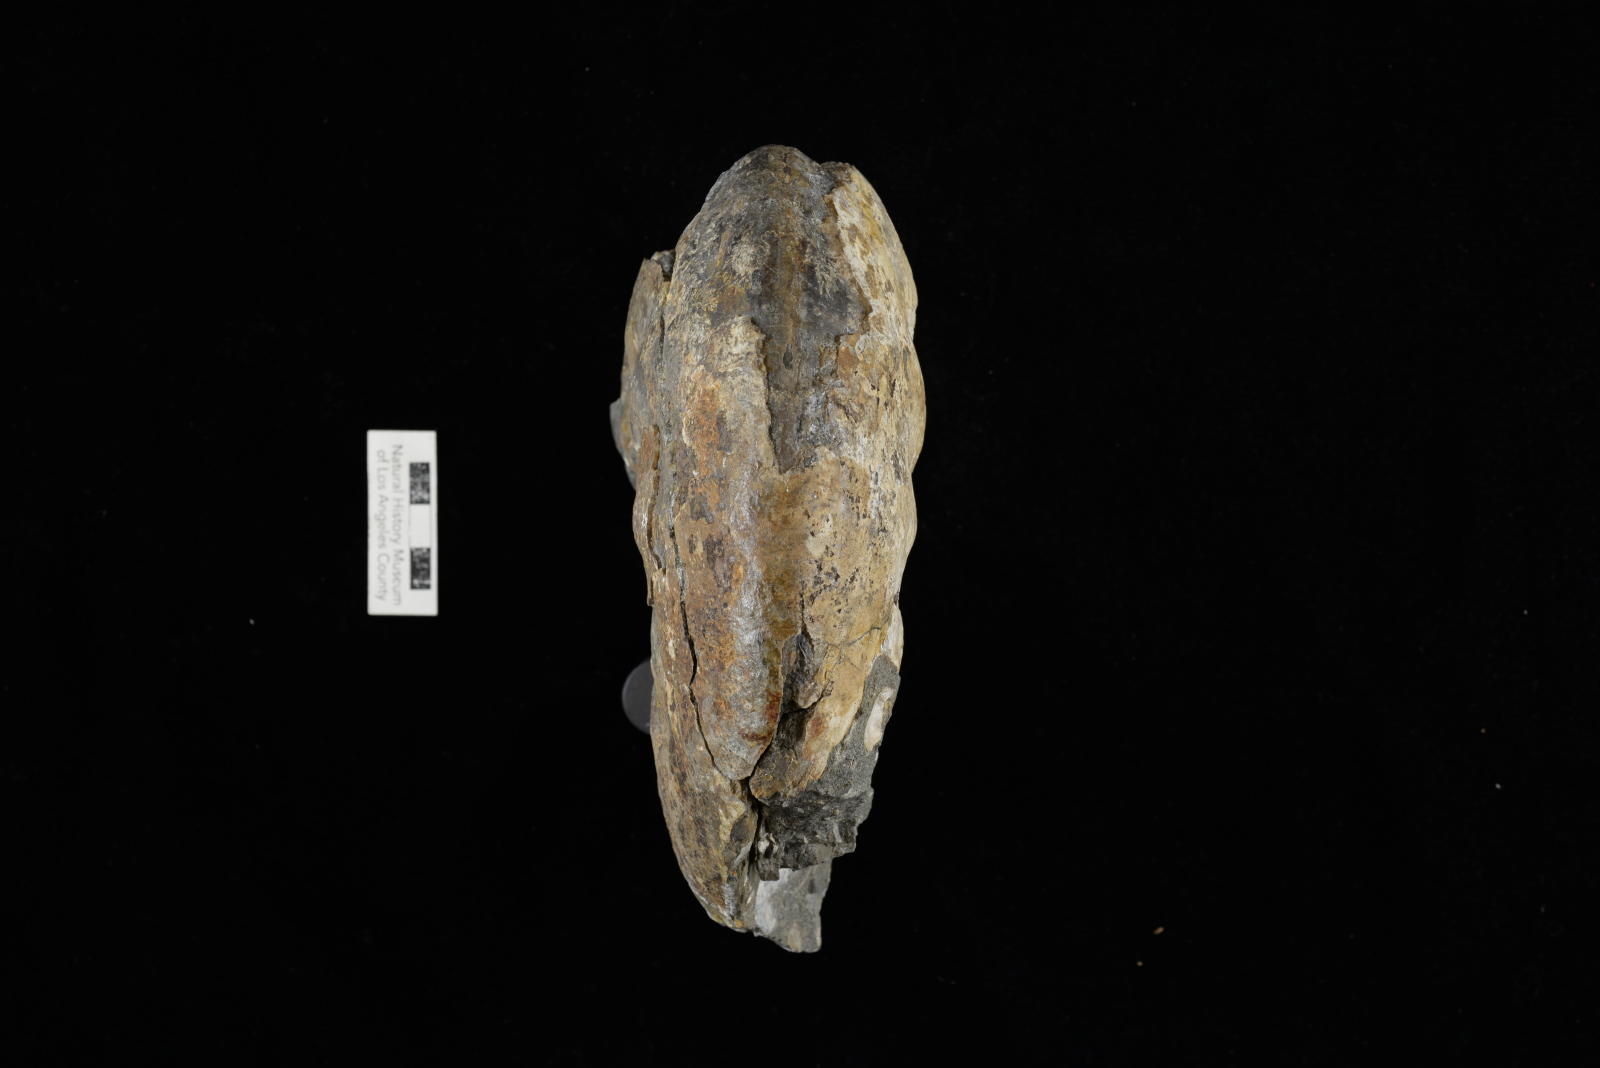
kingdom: Animalia
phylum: Mollusca
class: Cephalopoda
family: Pachydiscidae
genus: Pachydiscus
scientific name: Pachydiscus ashlandicus
